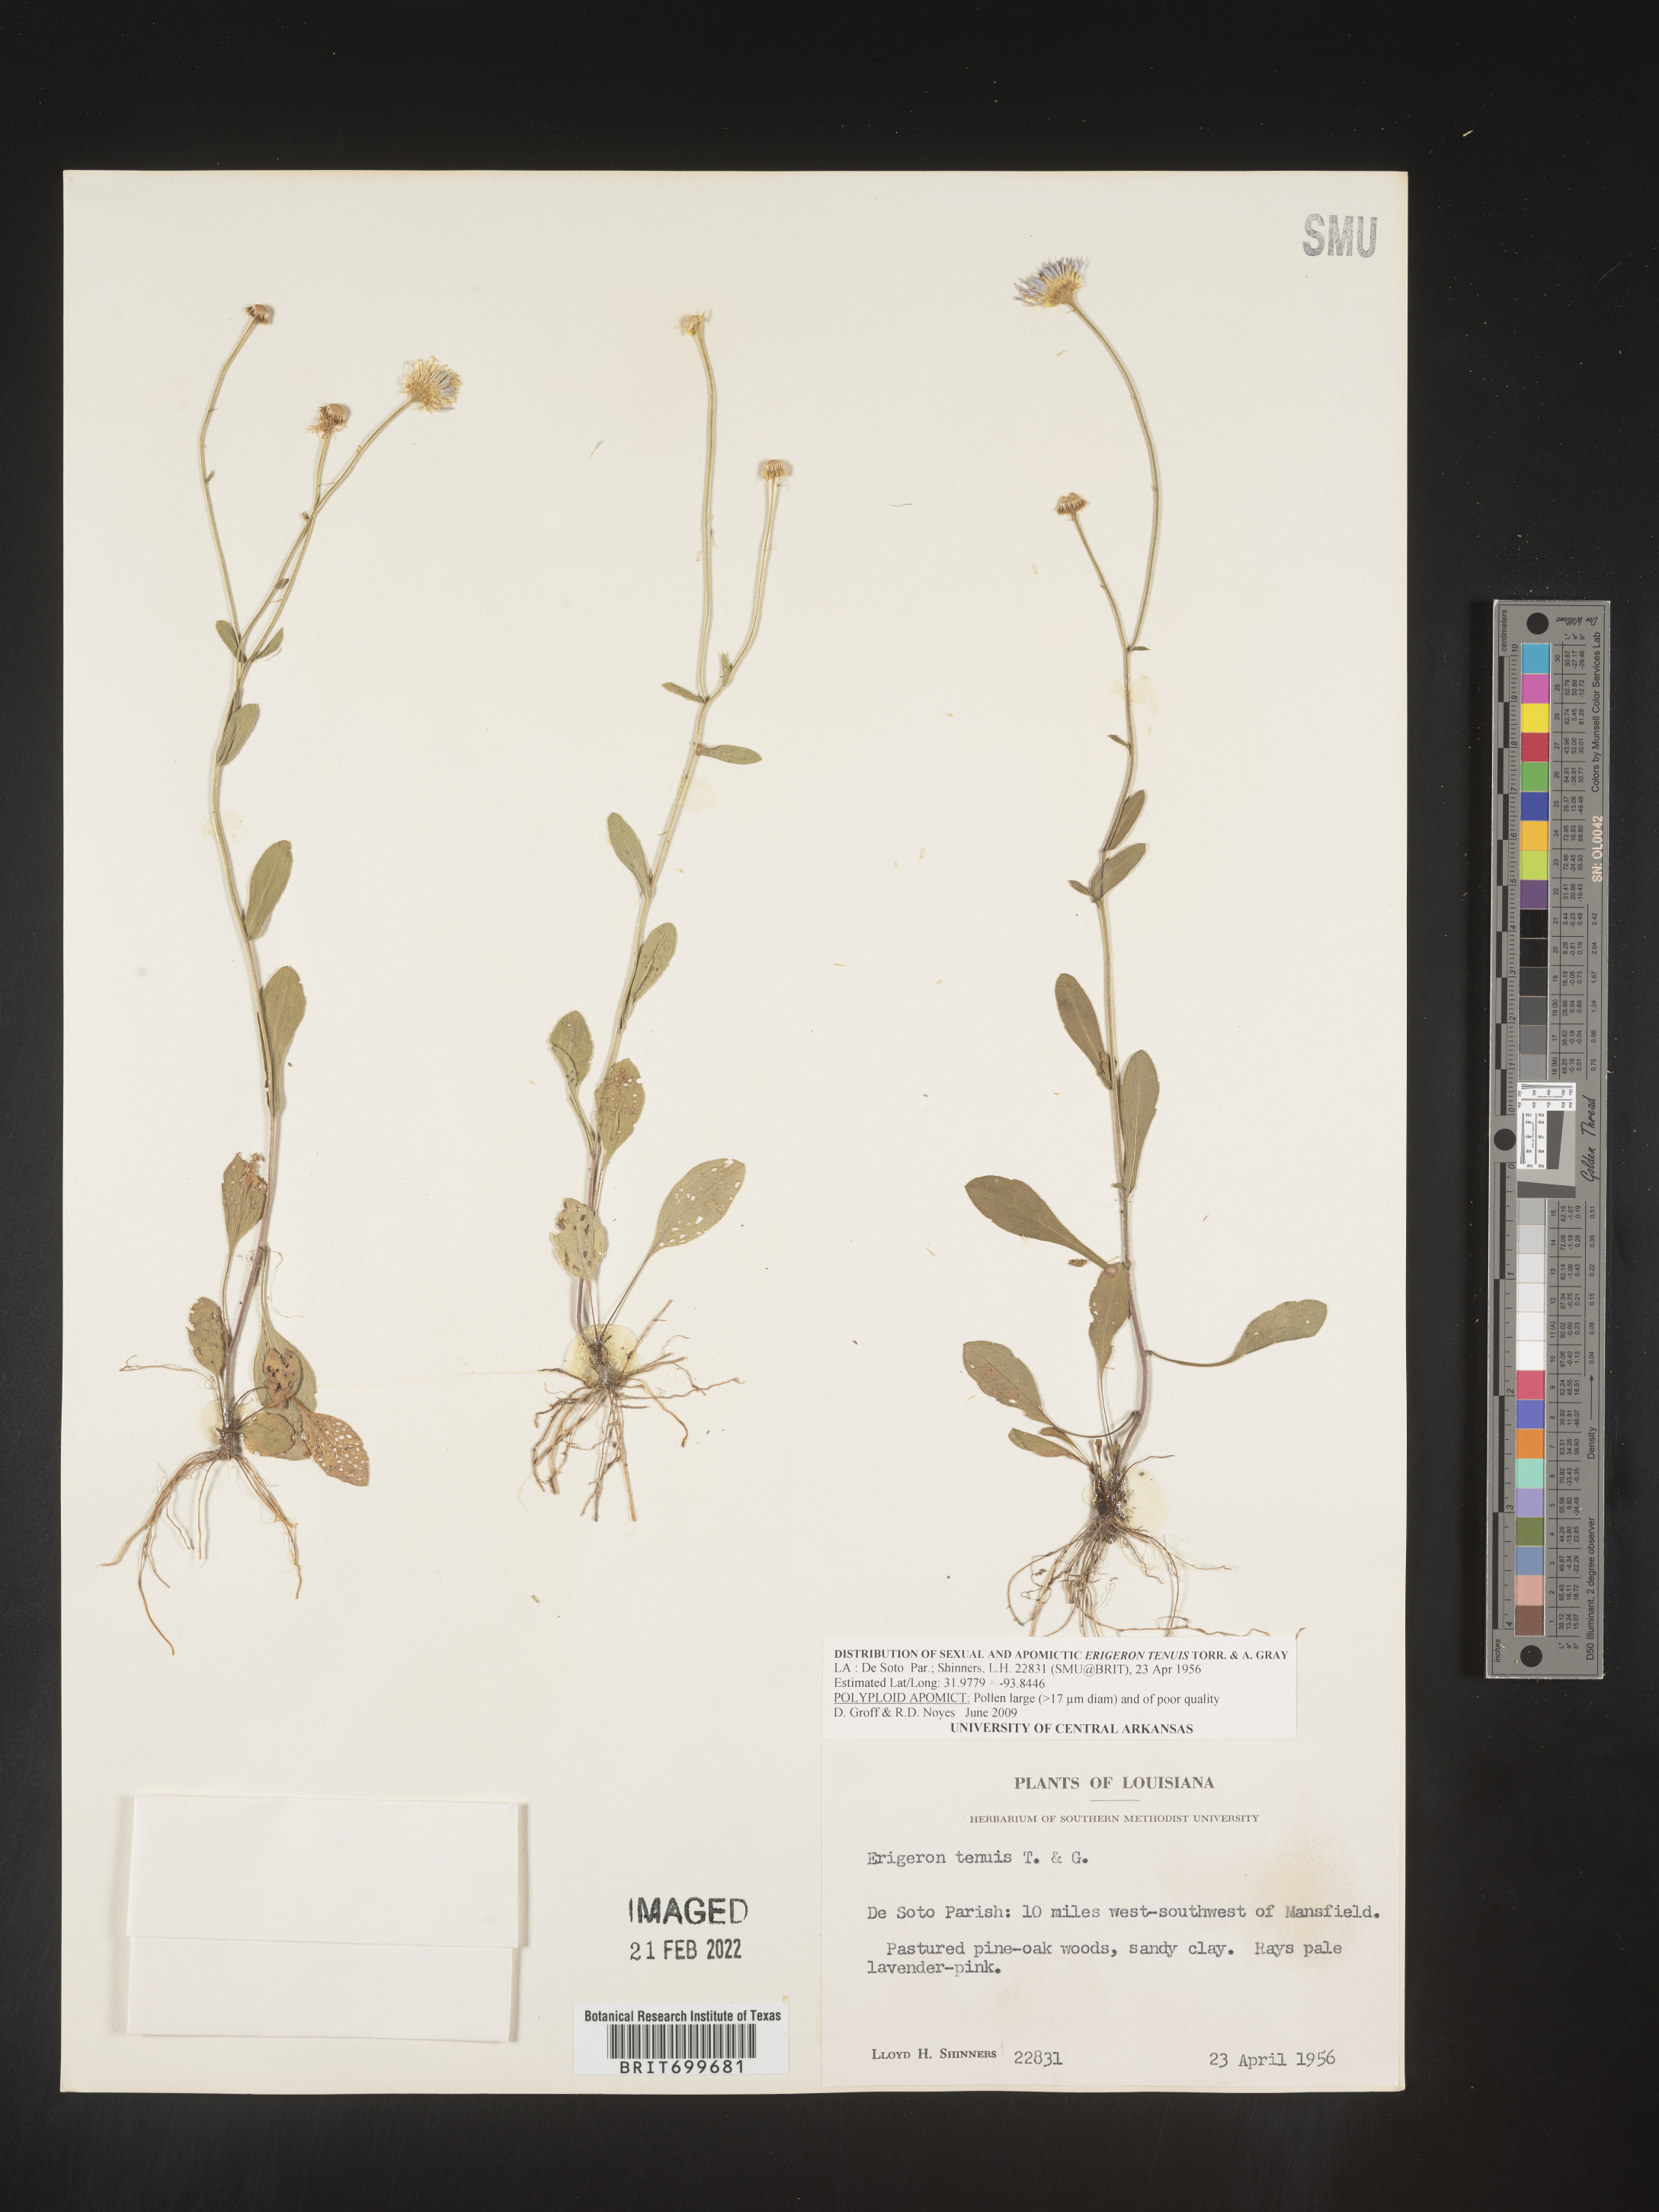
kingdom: Plantae
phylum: Tracheophyta
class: Magnoliopsida
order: Asterales
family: Asteraceae
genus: Erigeron
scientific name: Erigeron tenuis
